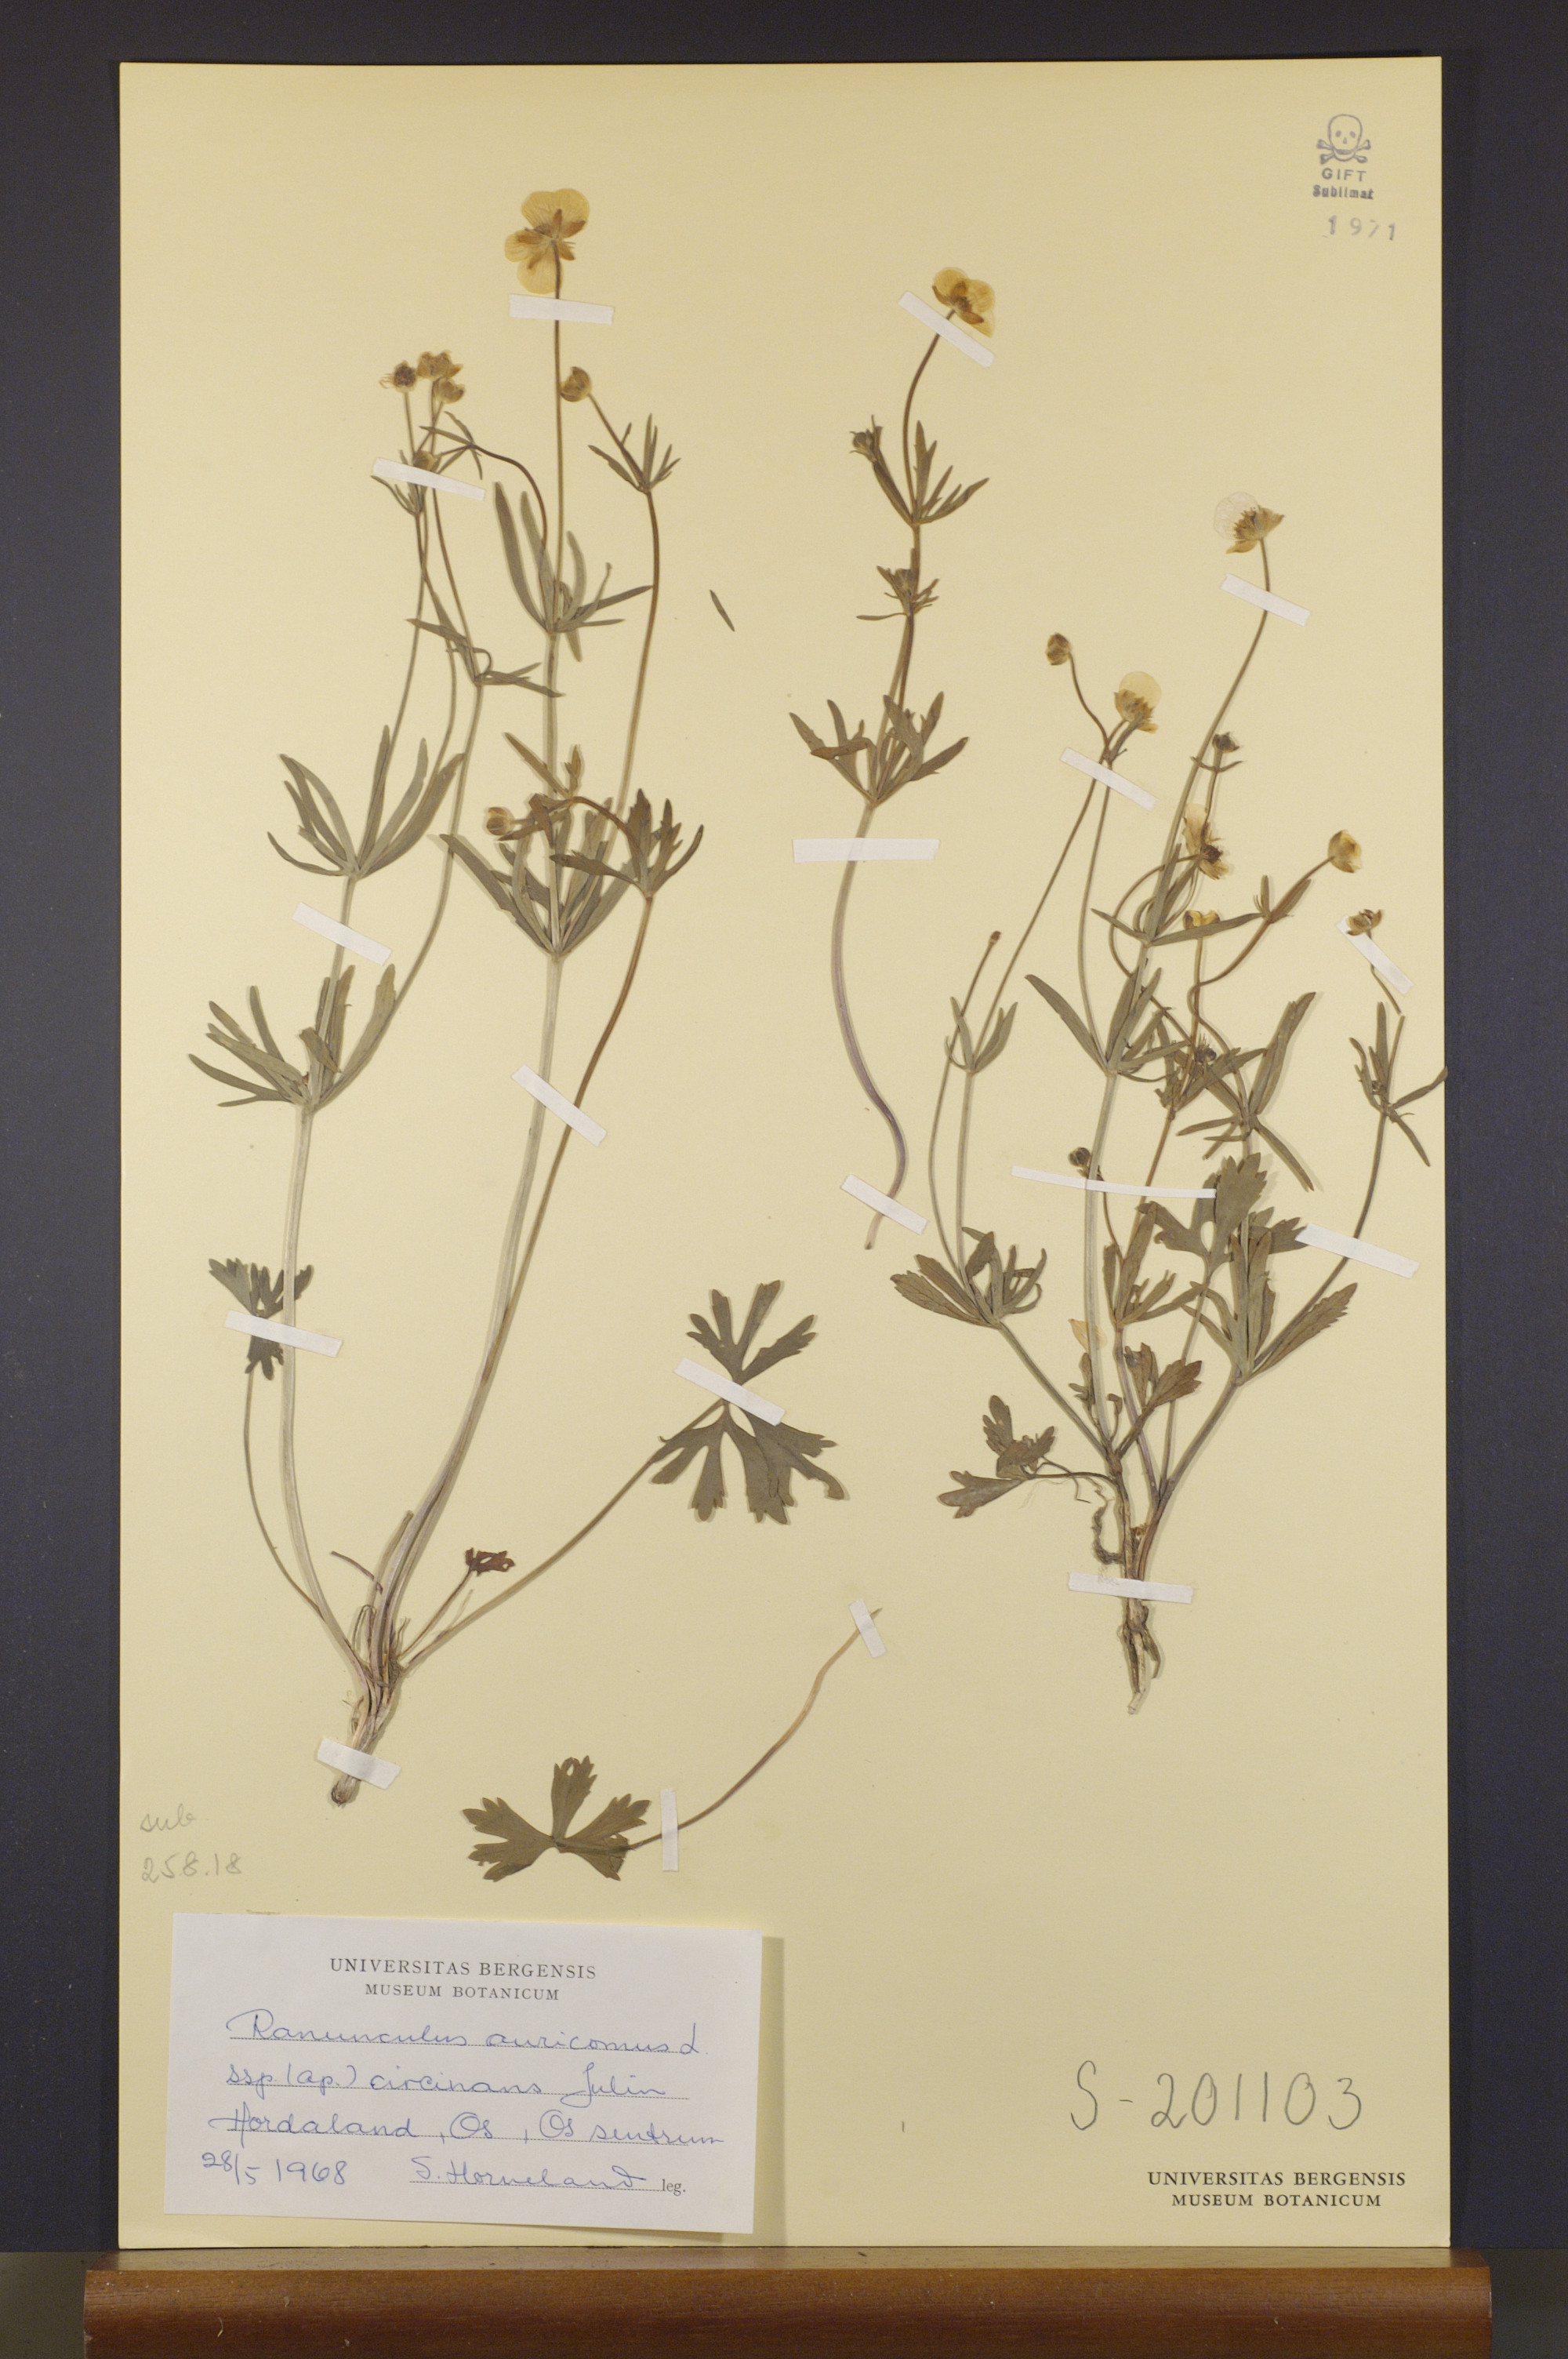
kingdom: Plantae
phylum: Tracheophyta
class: Magnoliopsida
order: Ranunculales
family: Ranunculaceae
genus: Ranunculus
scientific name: Ranunculus circinans
